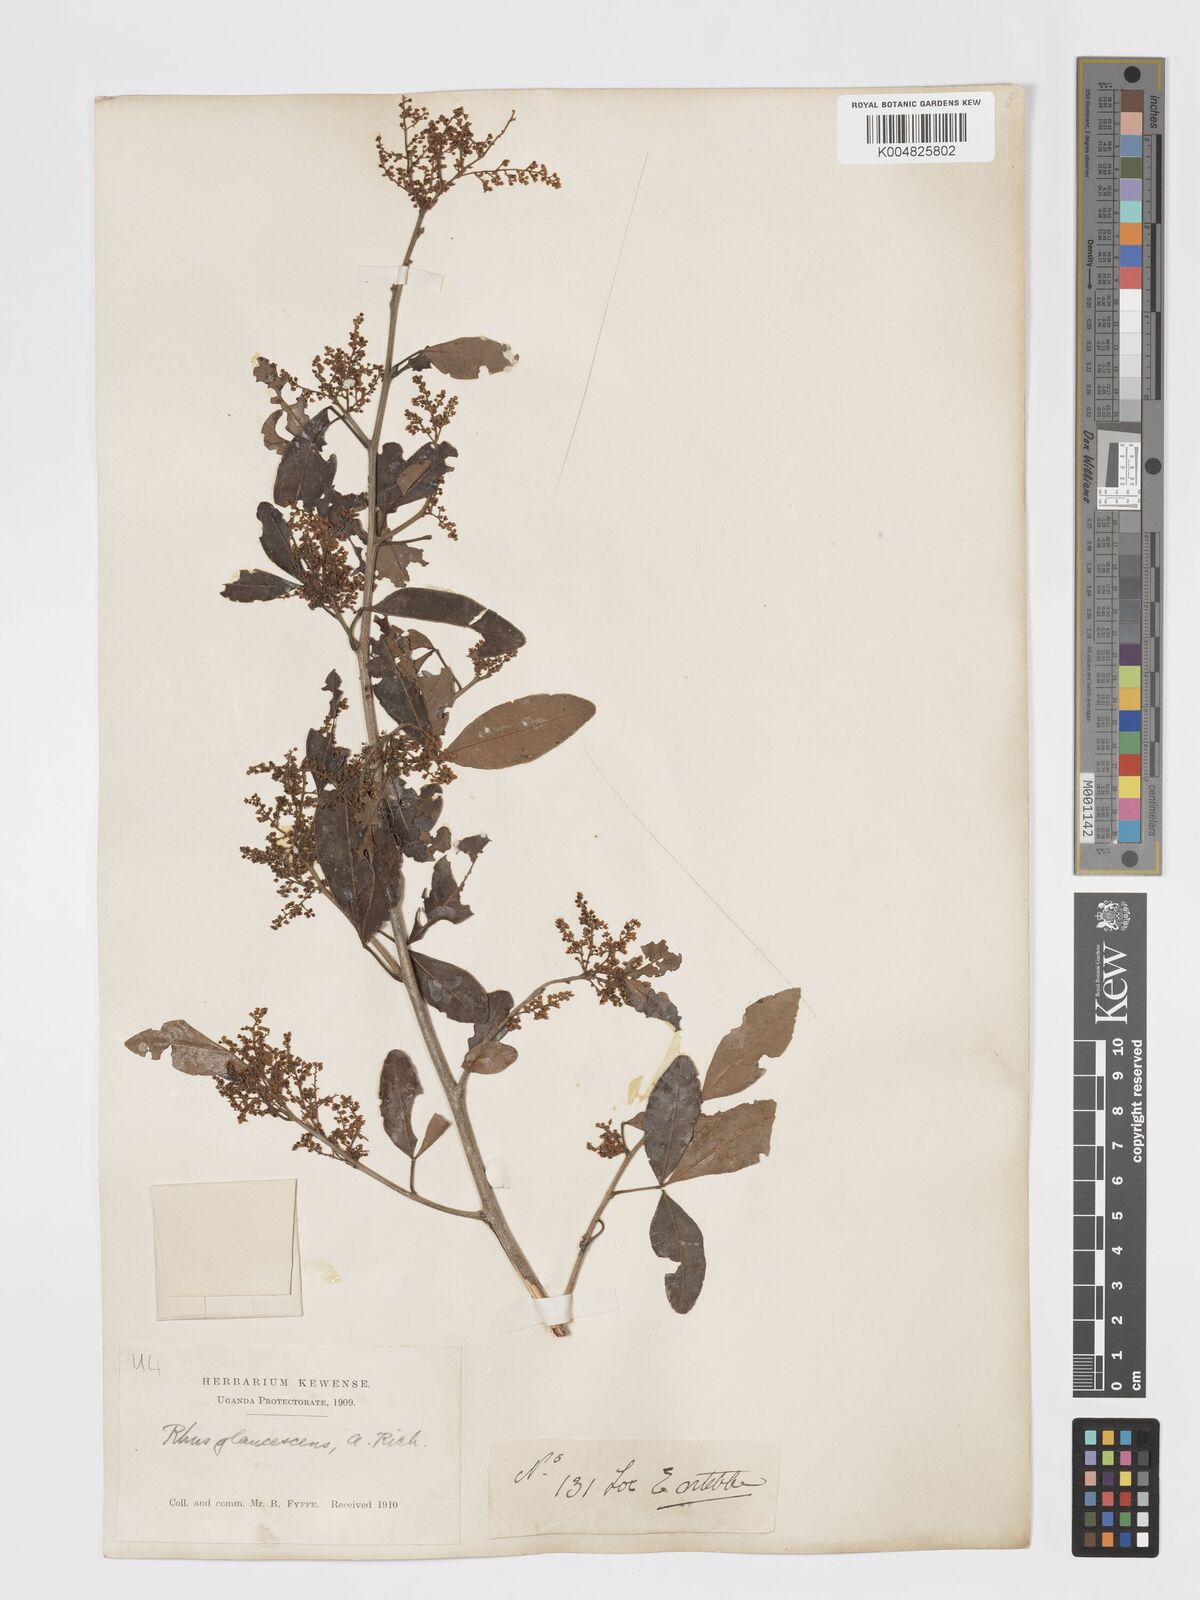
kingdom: Plantae
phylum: Tracheophyta
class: Magnoliopsida
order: Sapindales
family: Anacardiaceae
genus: Searsia
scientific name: Searsia natalensis
